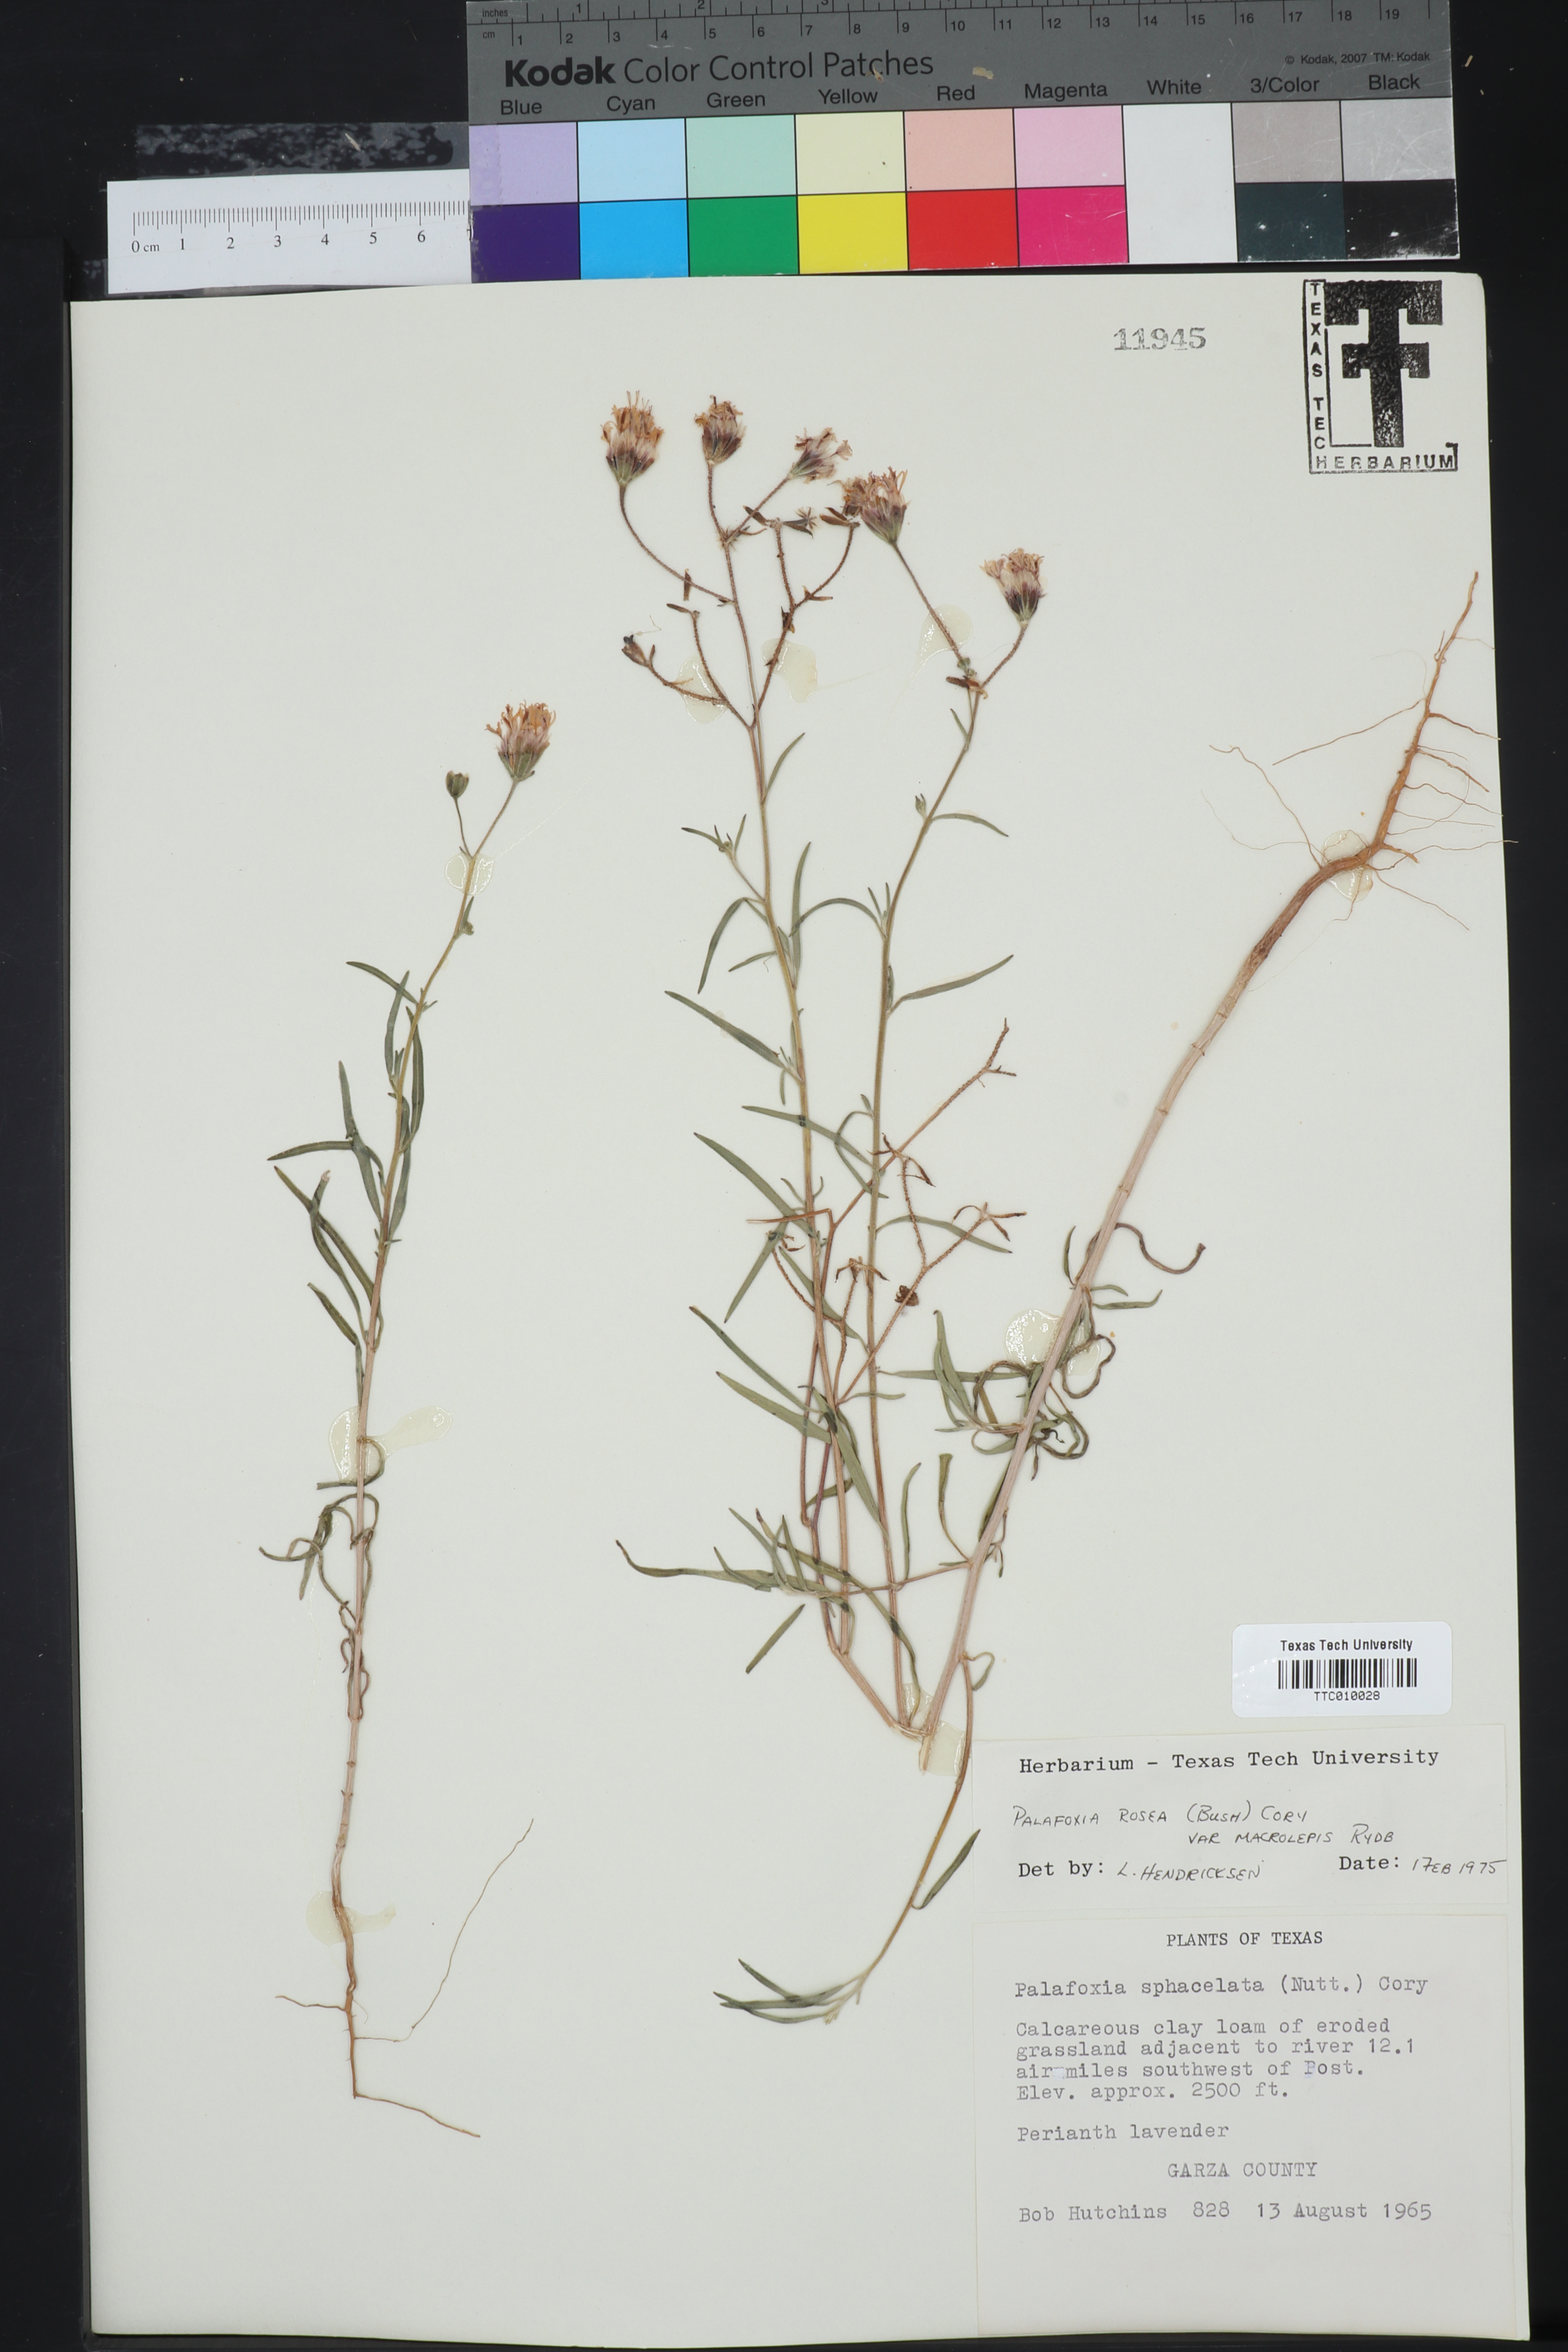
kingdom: Plantae
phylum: Tracheophyta
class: Magnoliopsida
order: Asterales
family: Asteraceae
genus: Palafoxia
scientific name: Palafoxia rosea
